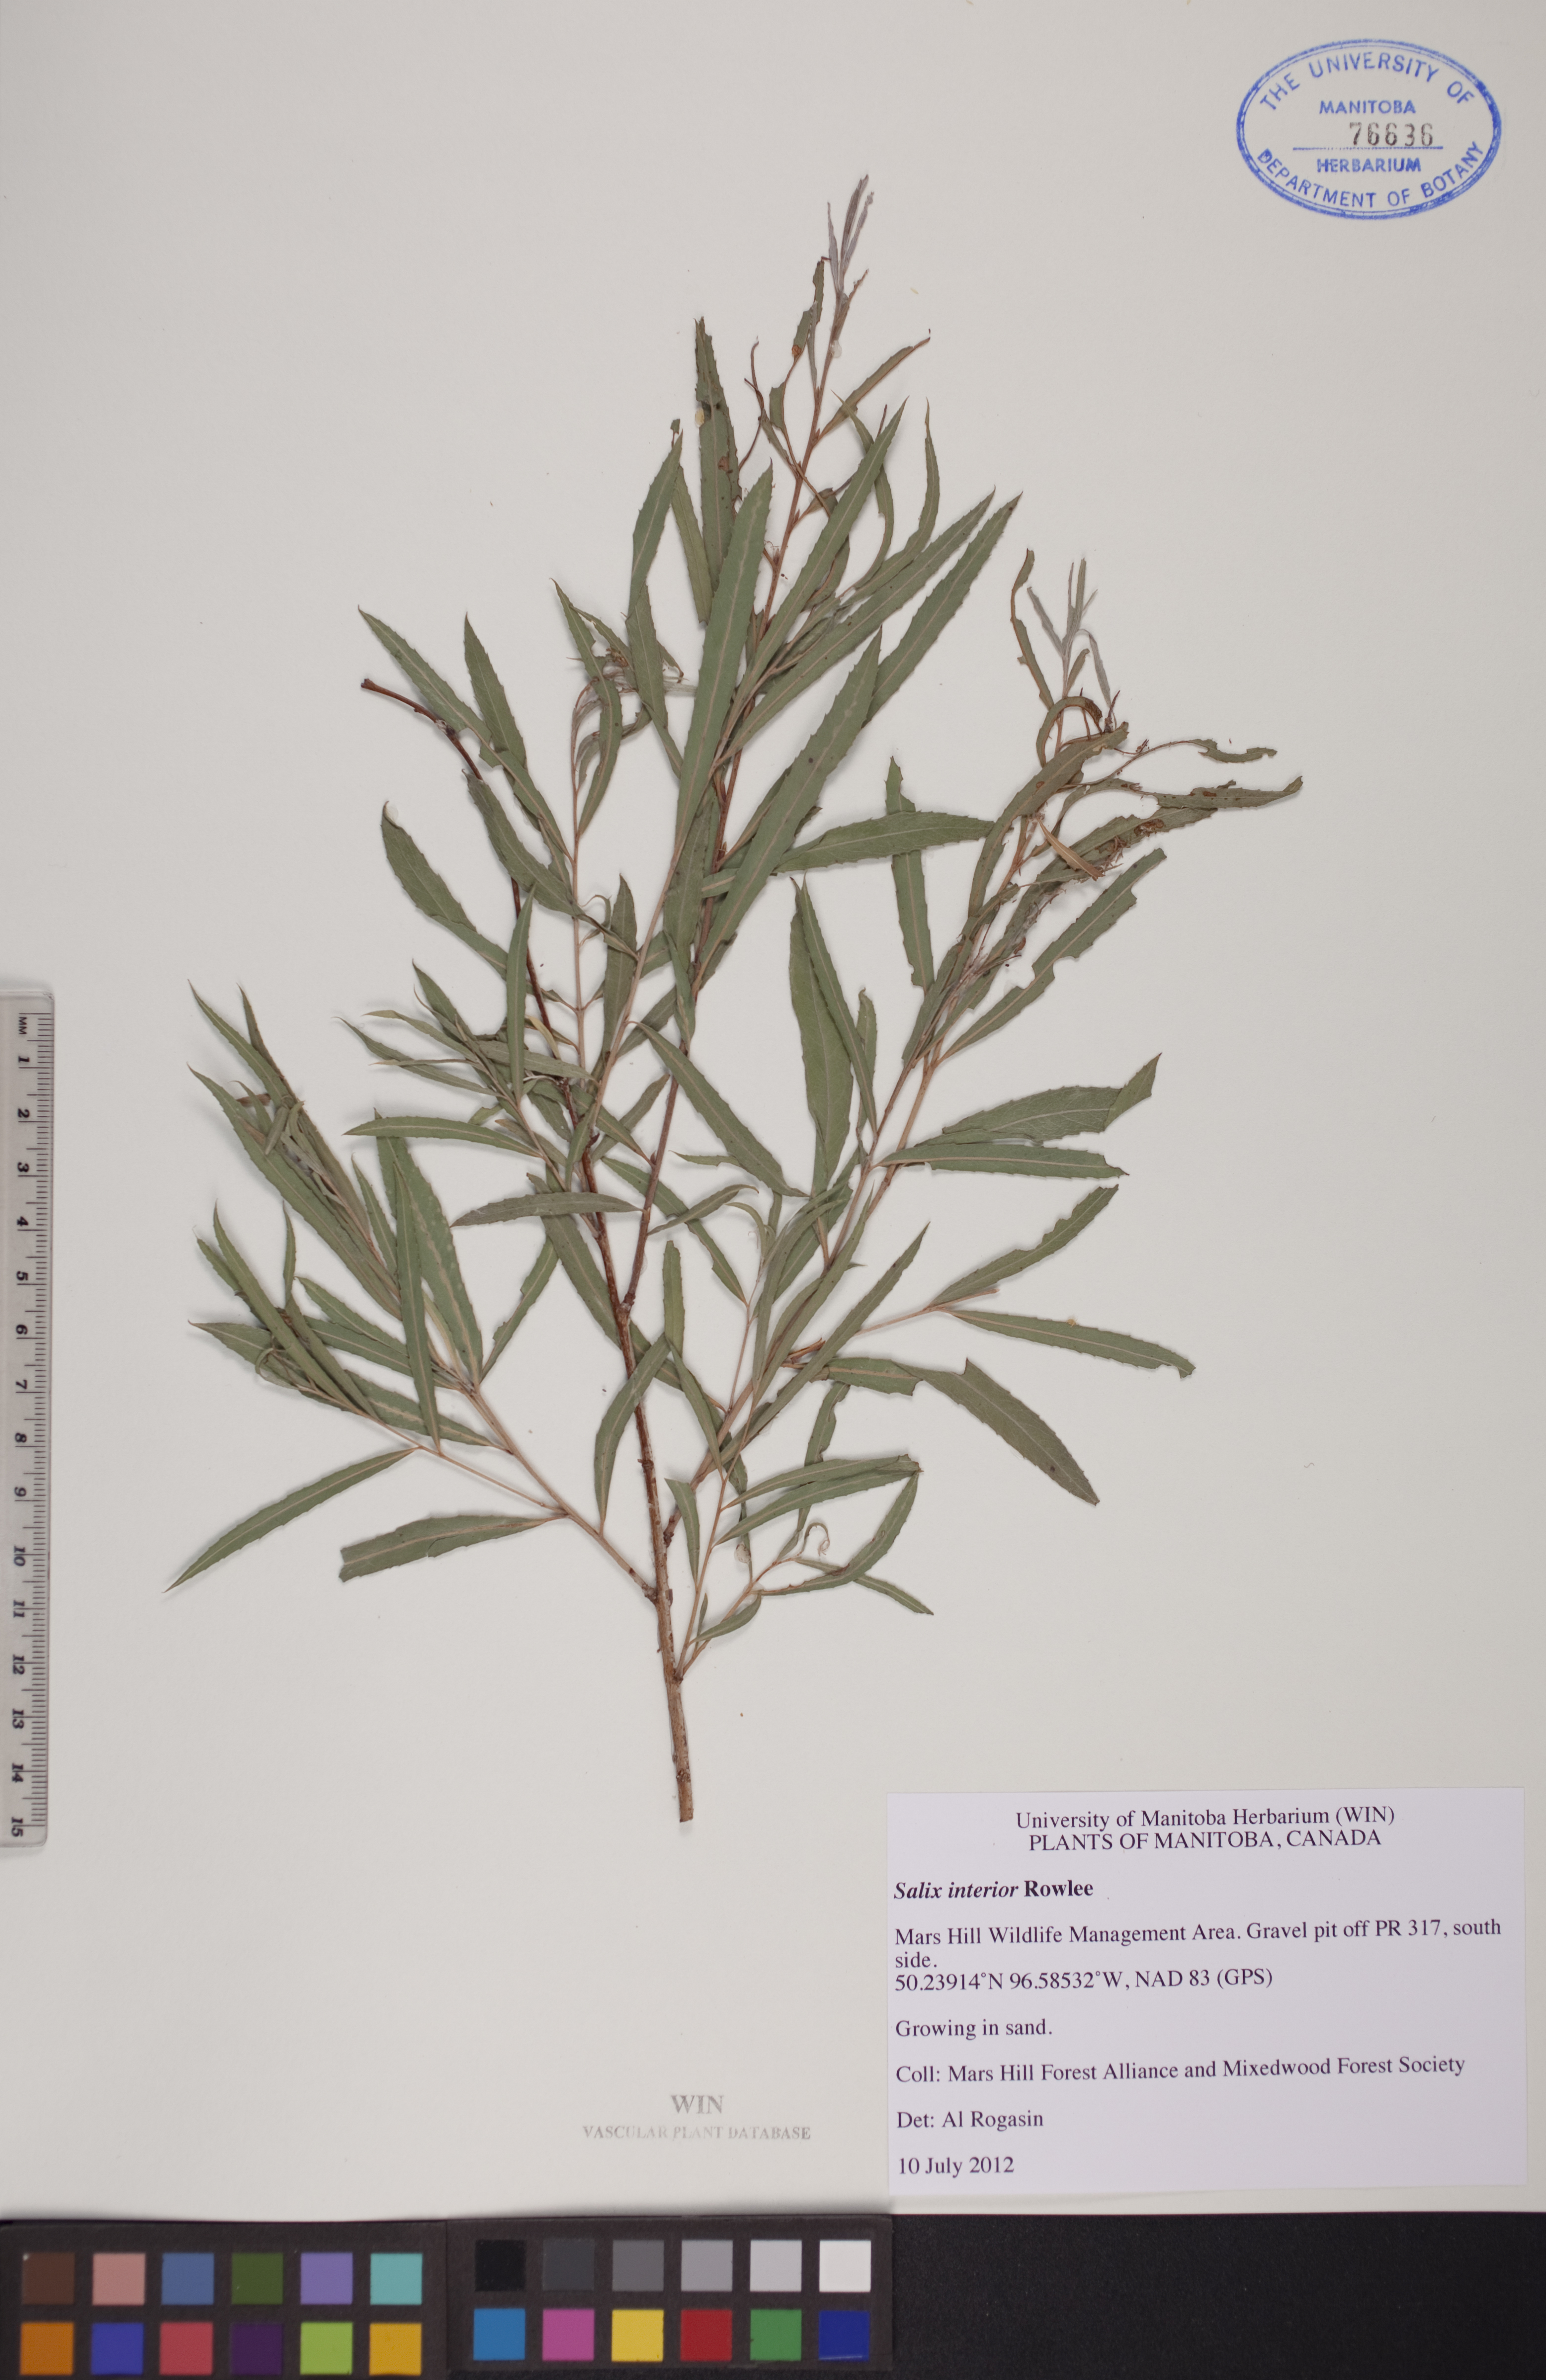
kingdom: Plantae
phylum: Tracheophyta
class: Magnoliopsida
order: Malpighiales
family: Salicaceae
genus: Salix
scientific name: Salix interior
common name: Sandbar willow
